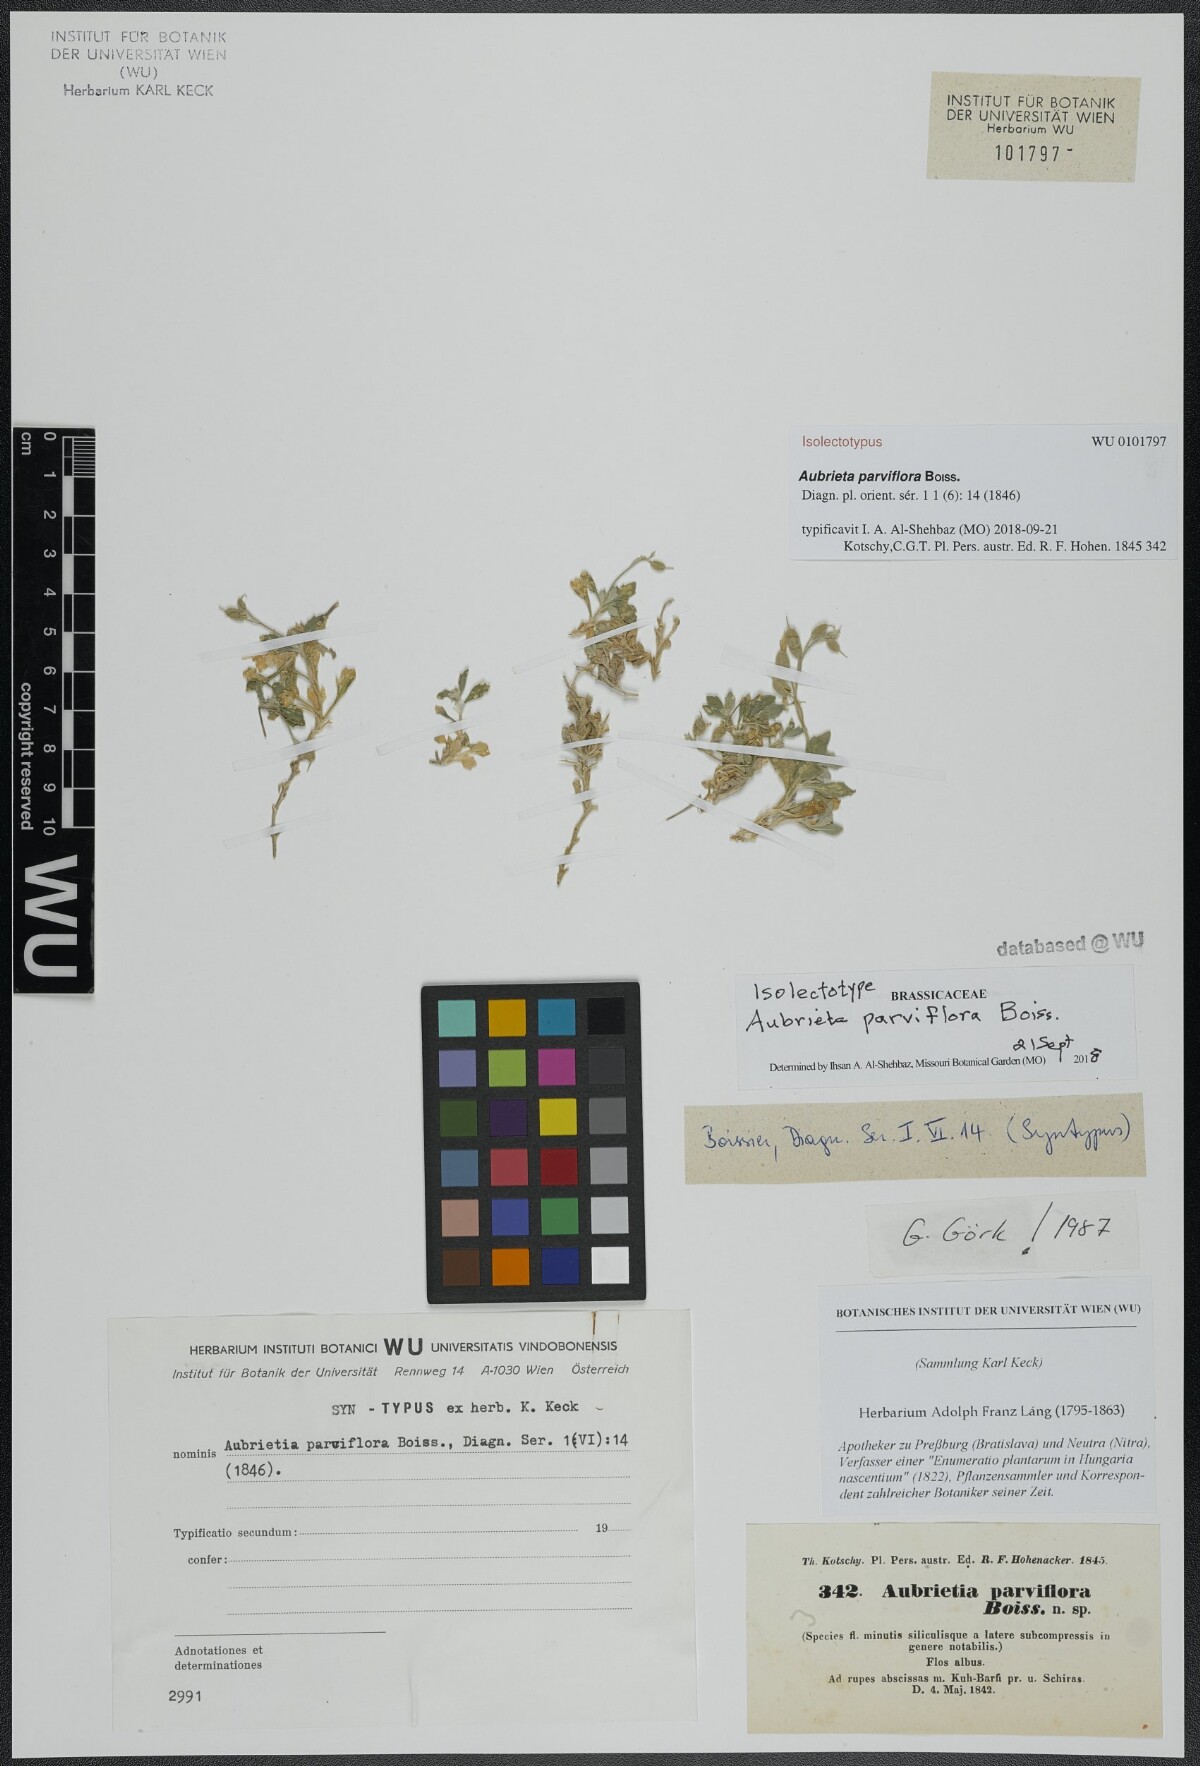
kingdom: Plantae
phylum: Tracheophyta
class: Magnoliopsida
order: Brassicales
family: Brassicaceae
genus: Aubrieta
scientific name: Aubrieta parviflora
